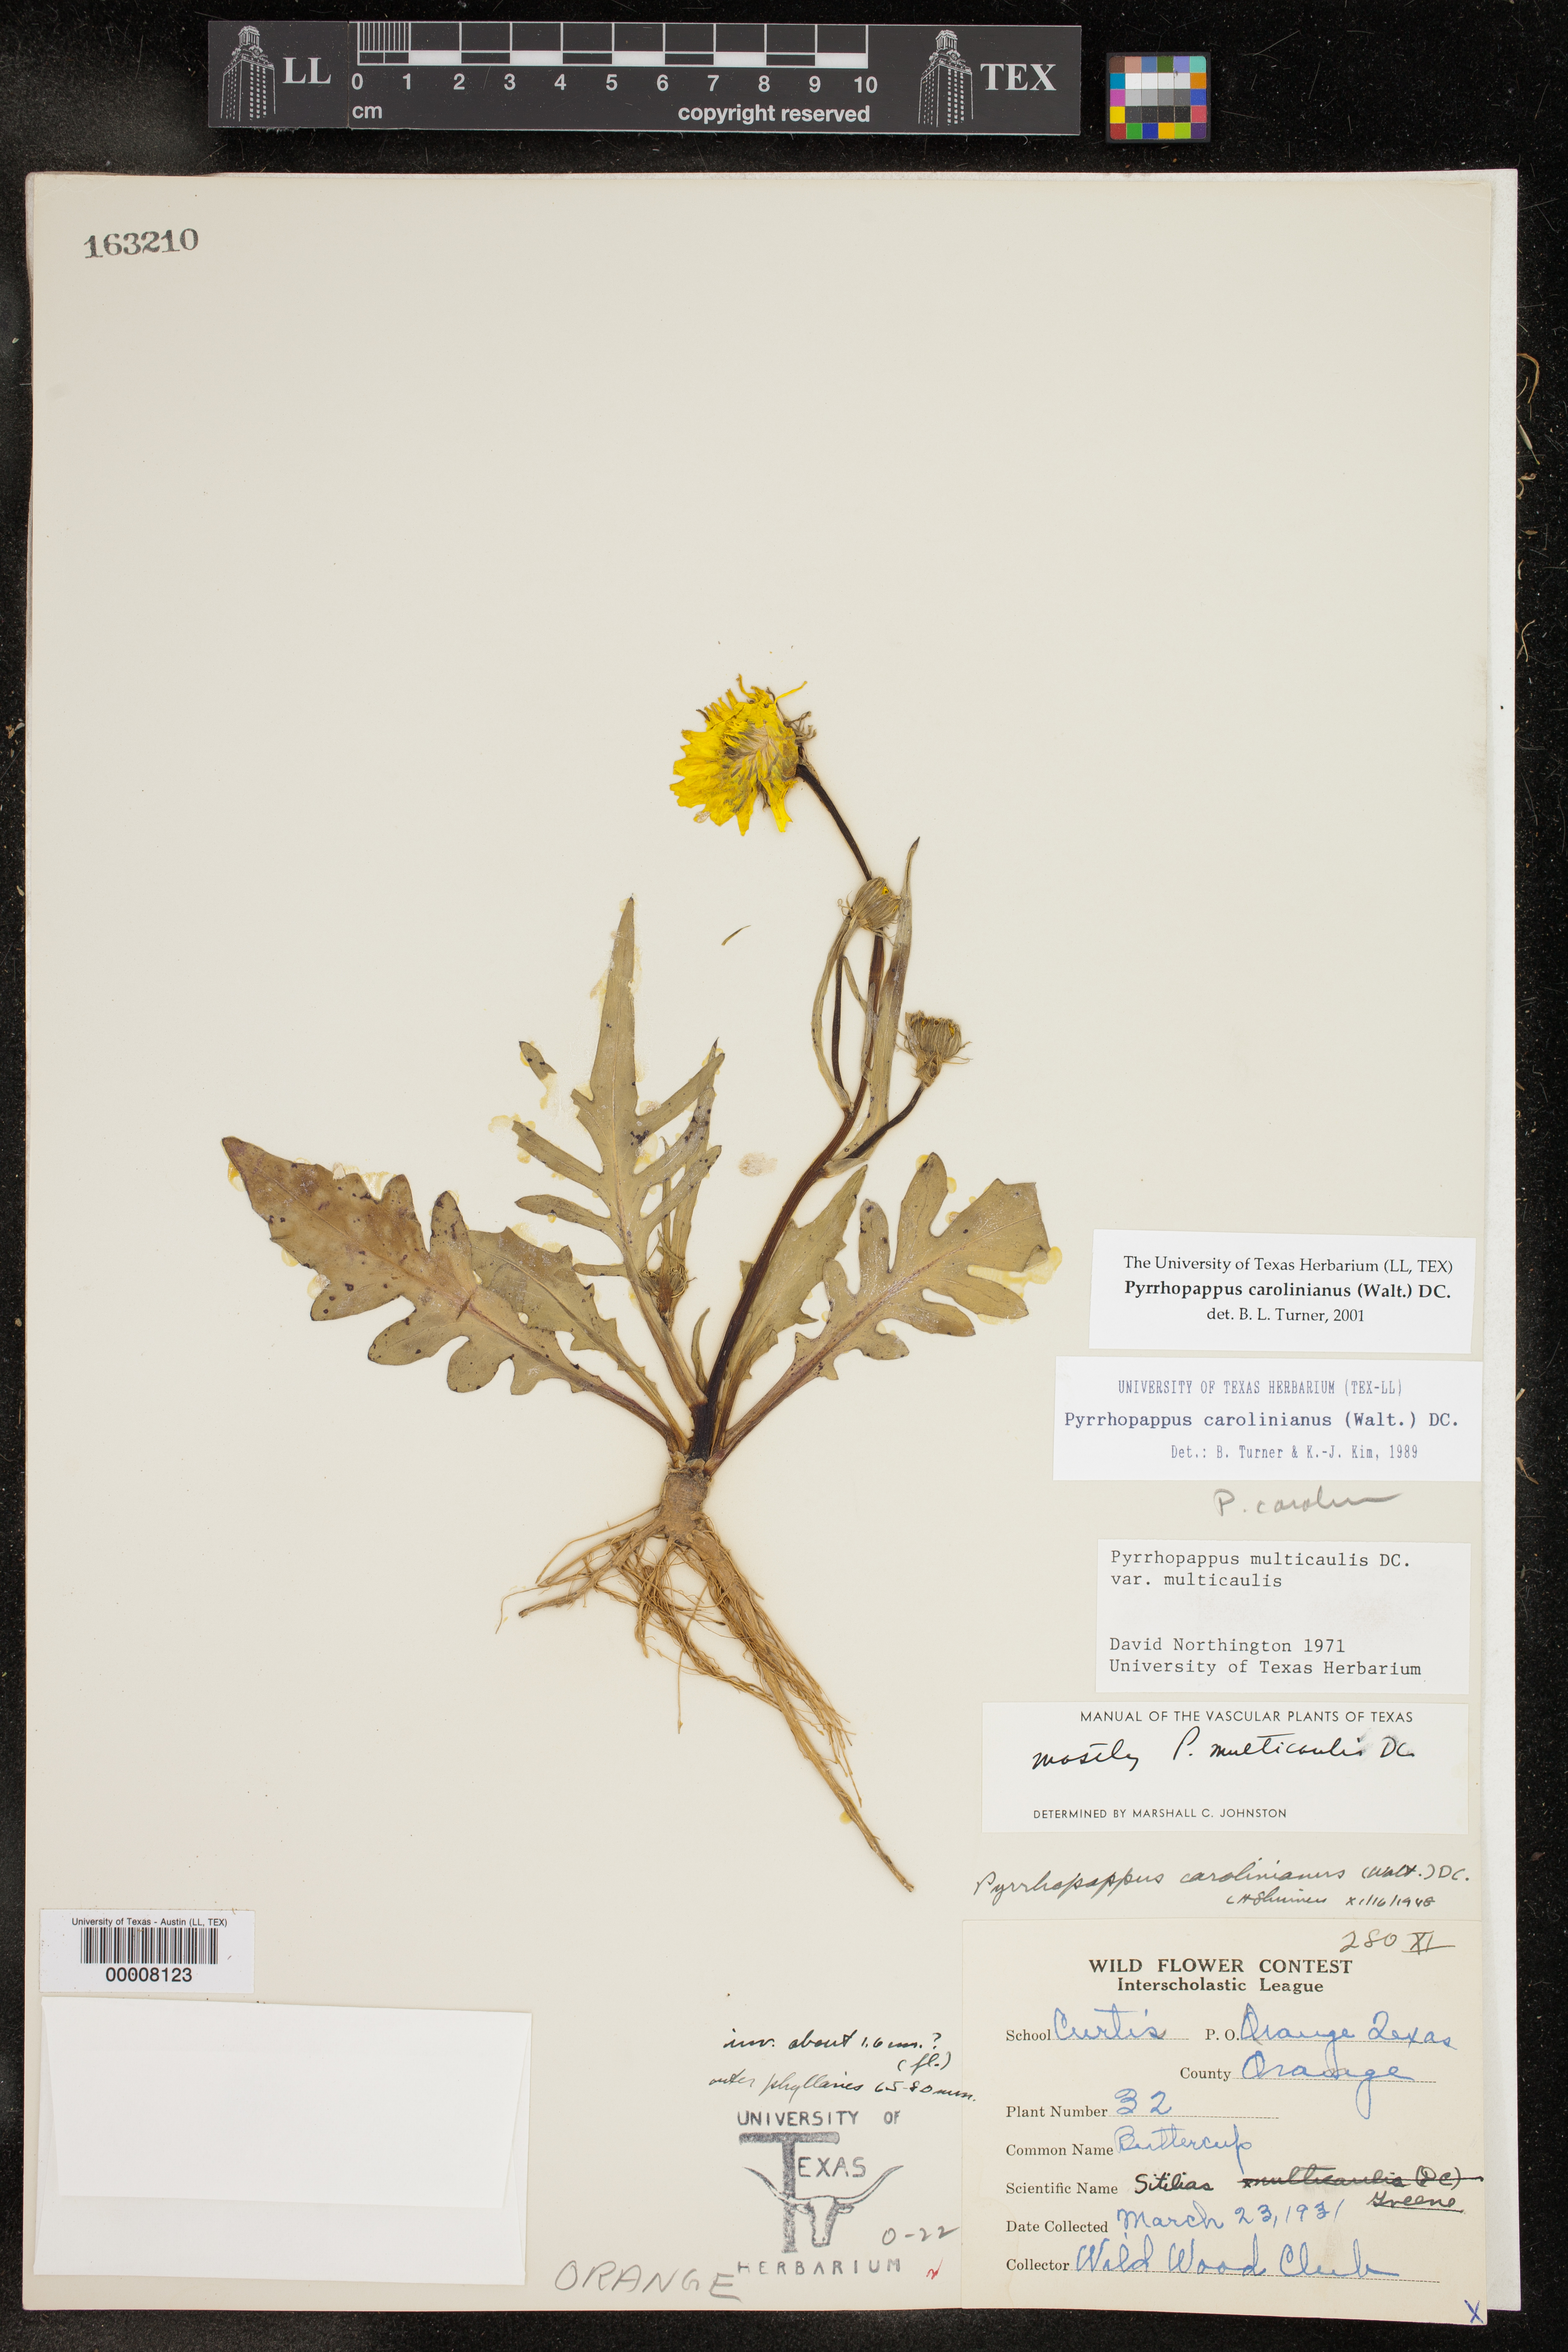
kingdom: Plantae
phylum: Tracheophyta
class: Magnoliopsida
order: Asterales
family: Asteraceae
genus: Pyrrhopappus
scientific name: Pyrrhopappus carolinianus
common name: Carolina desert-chicory
